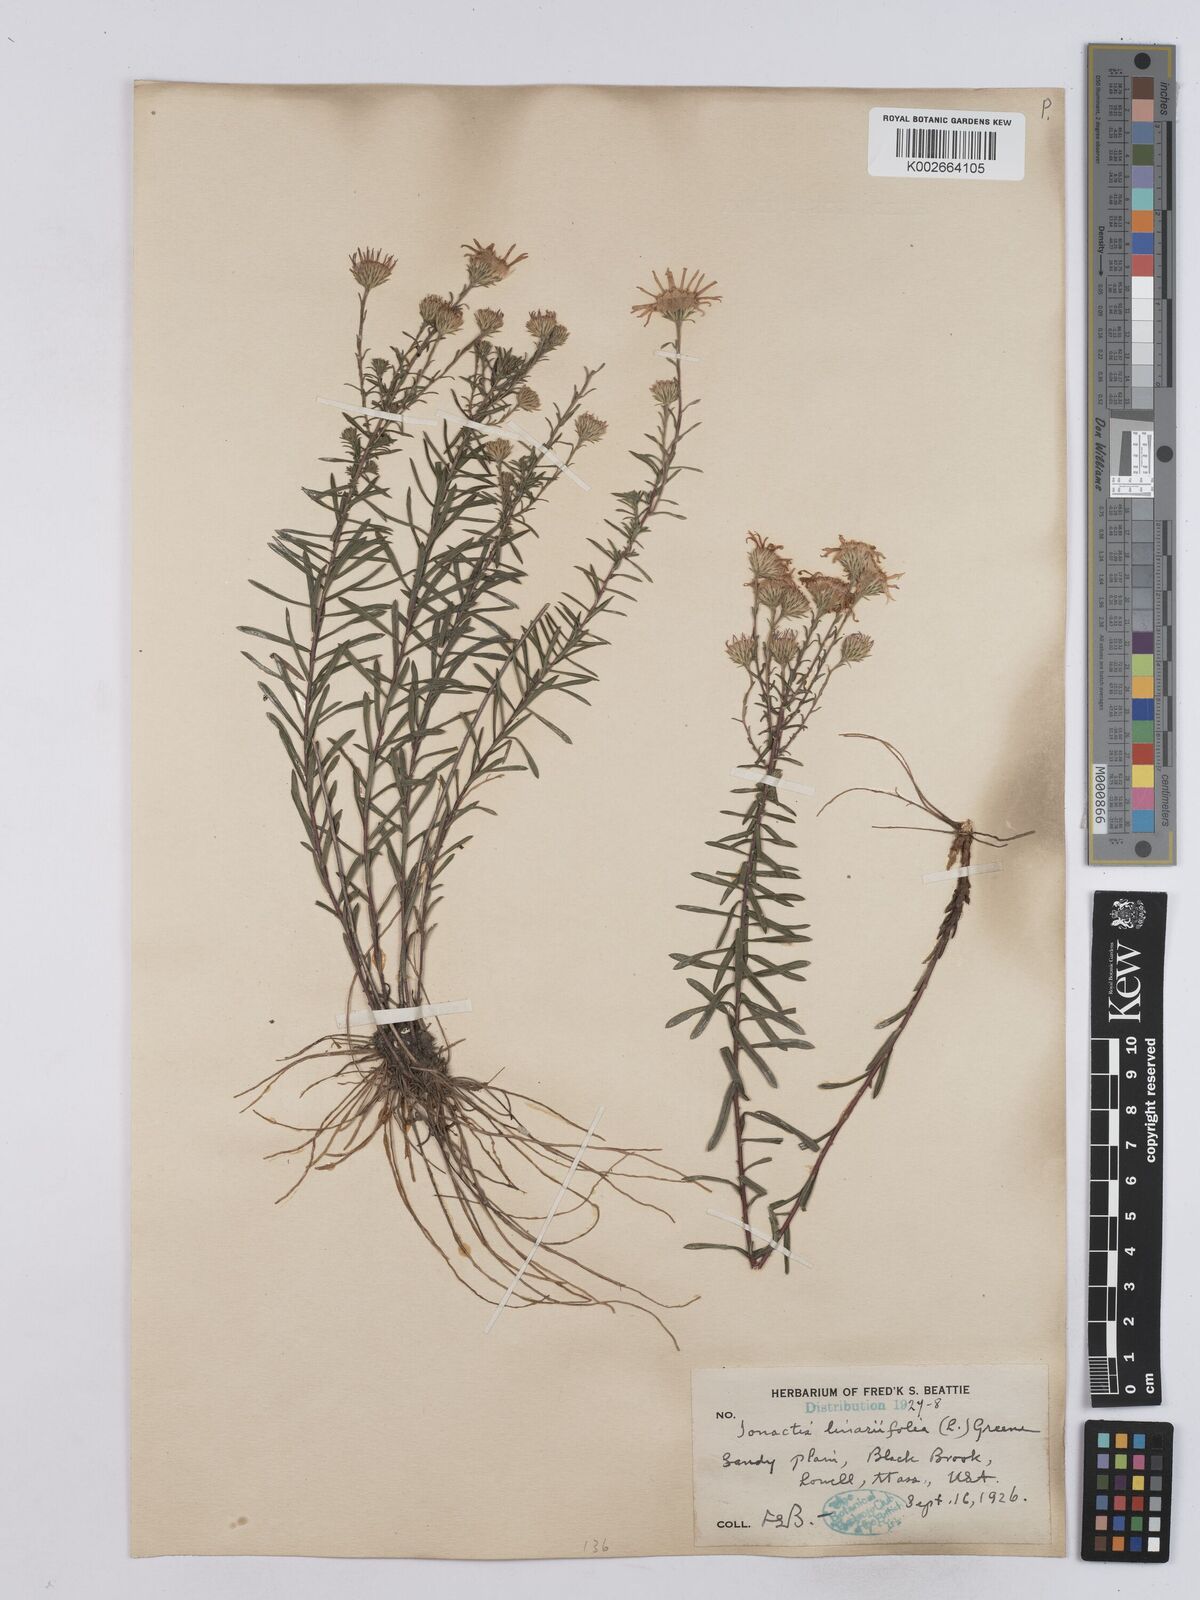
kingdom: Plantae
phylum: Tracheophyta
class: Magnoliopsida
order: Asterales
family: Asteraceae
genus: Ionactis
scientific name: Ionactis linariifolia
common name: Flax-leaf aster
